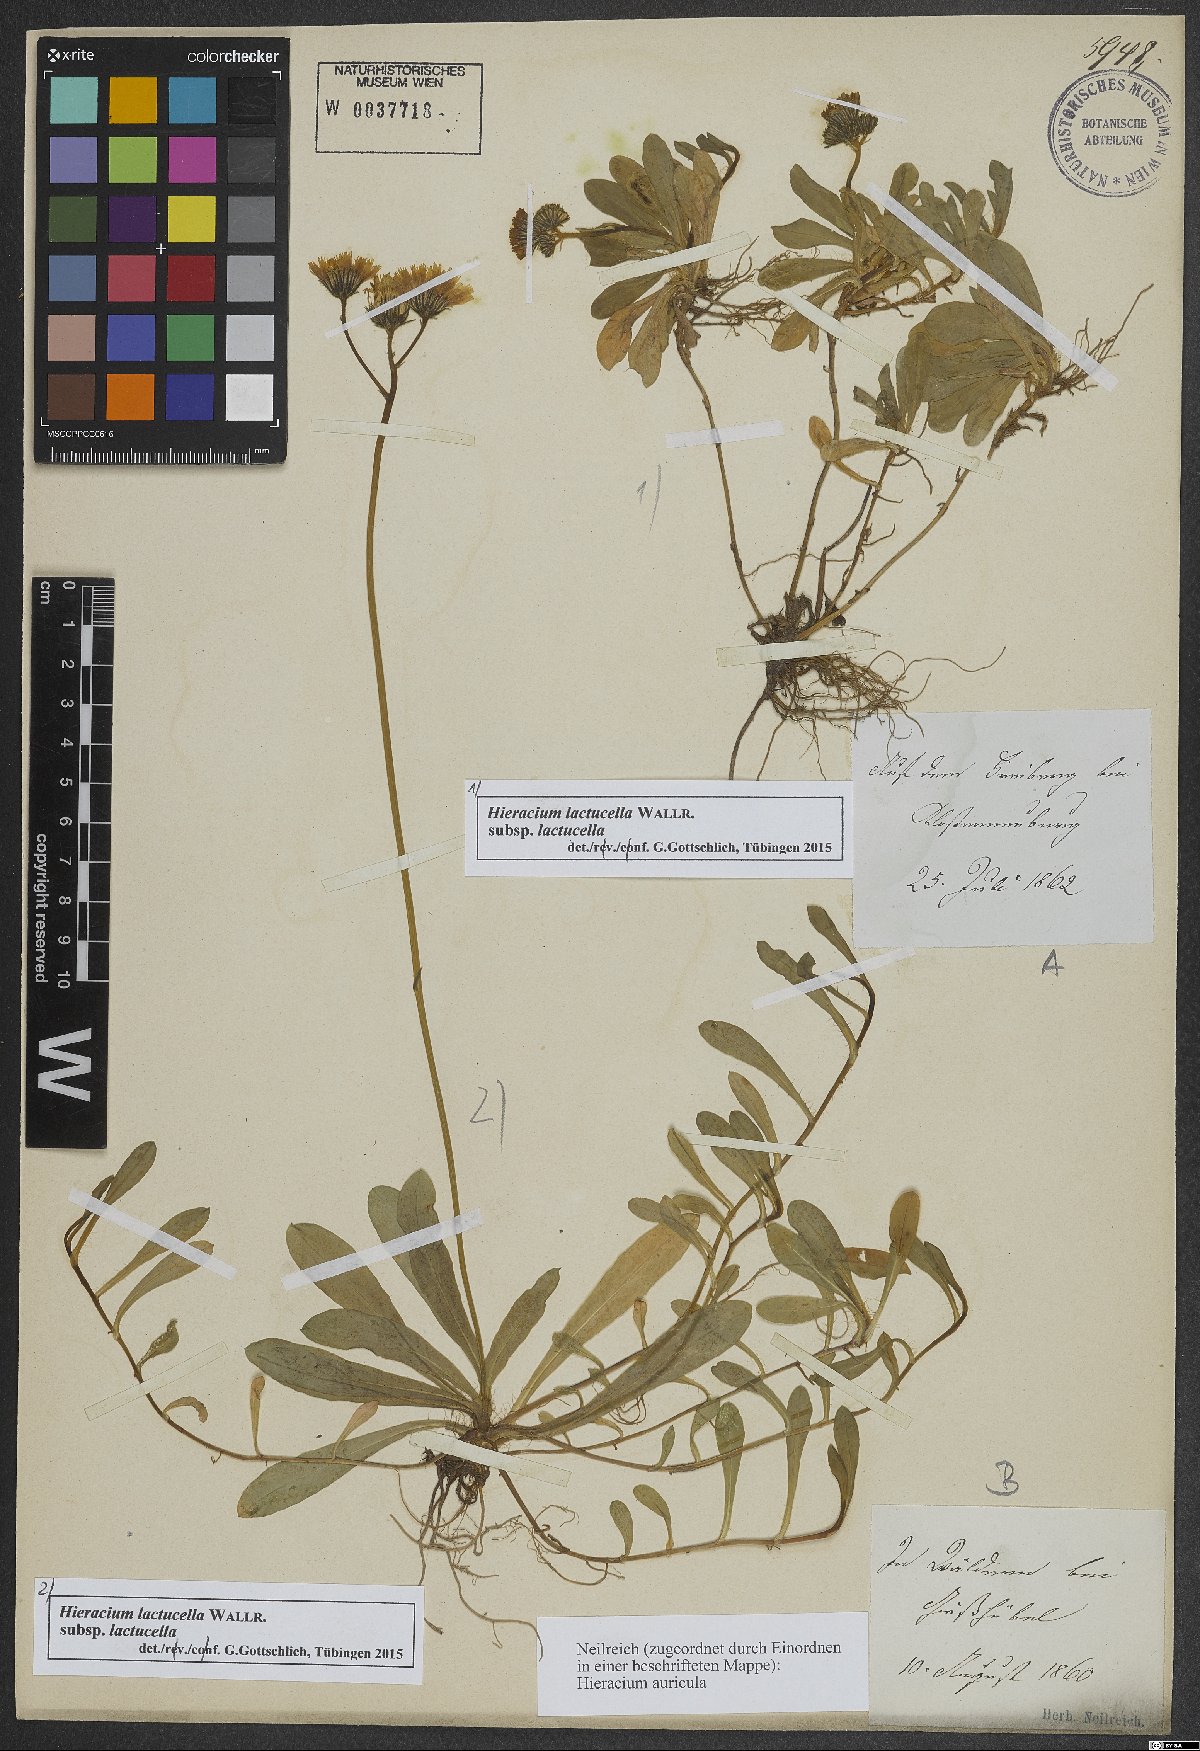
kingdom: Plantae
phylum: Tracheophyta
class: Magnoliopsida
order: Asterales
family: Asteraceae
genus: Pilosella
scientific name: Pilosella lactucella
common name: Glaucous fox-and-cubs
